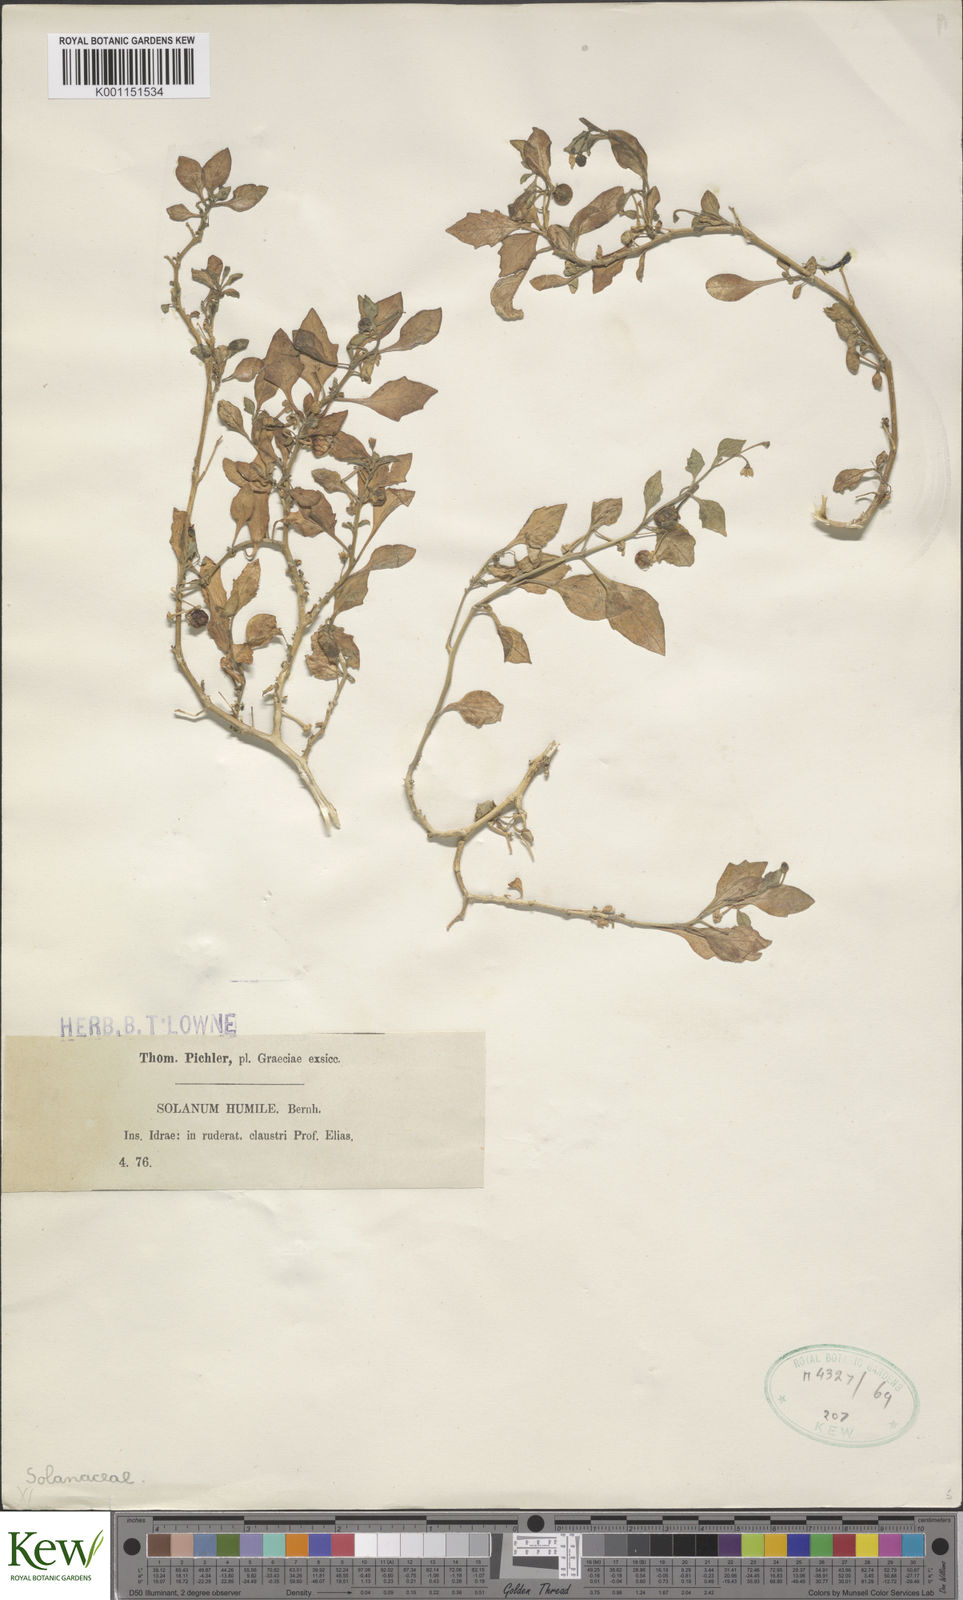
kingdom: Plantae
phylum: Tracheophyta
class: Magnoliopsida
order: Solanales
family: Solanaceae
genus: Solanum
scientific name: Solanum nigrum
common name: Black nightshade
